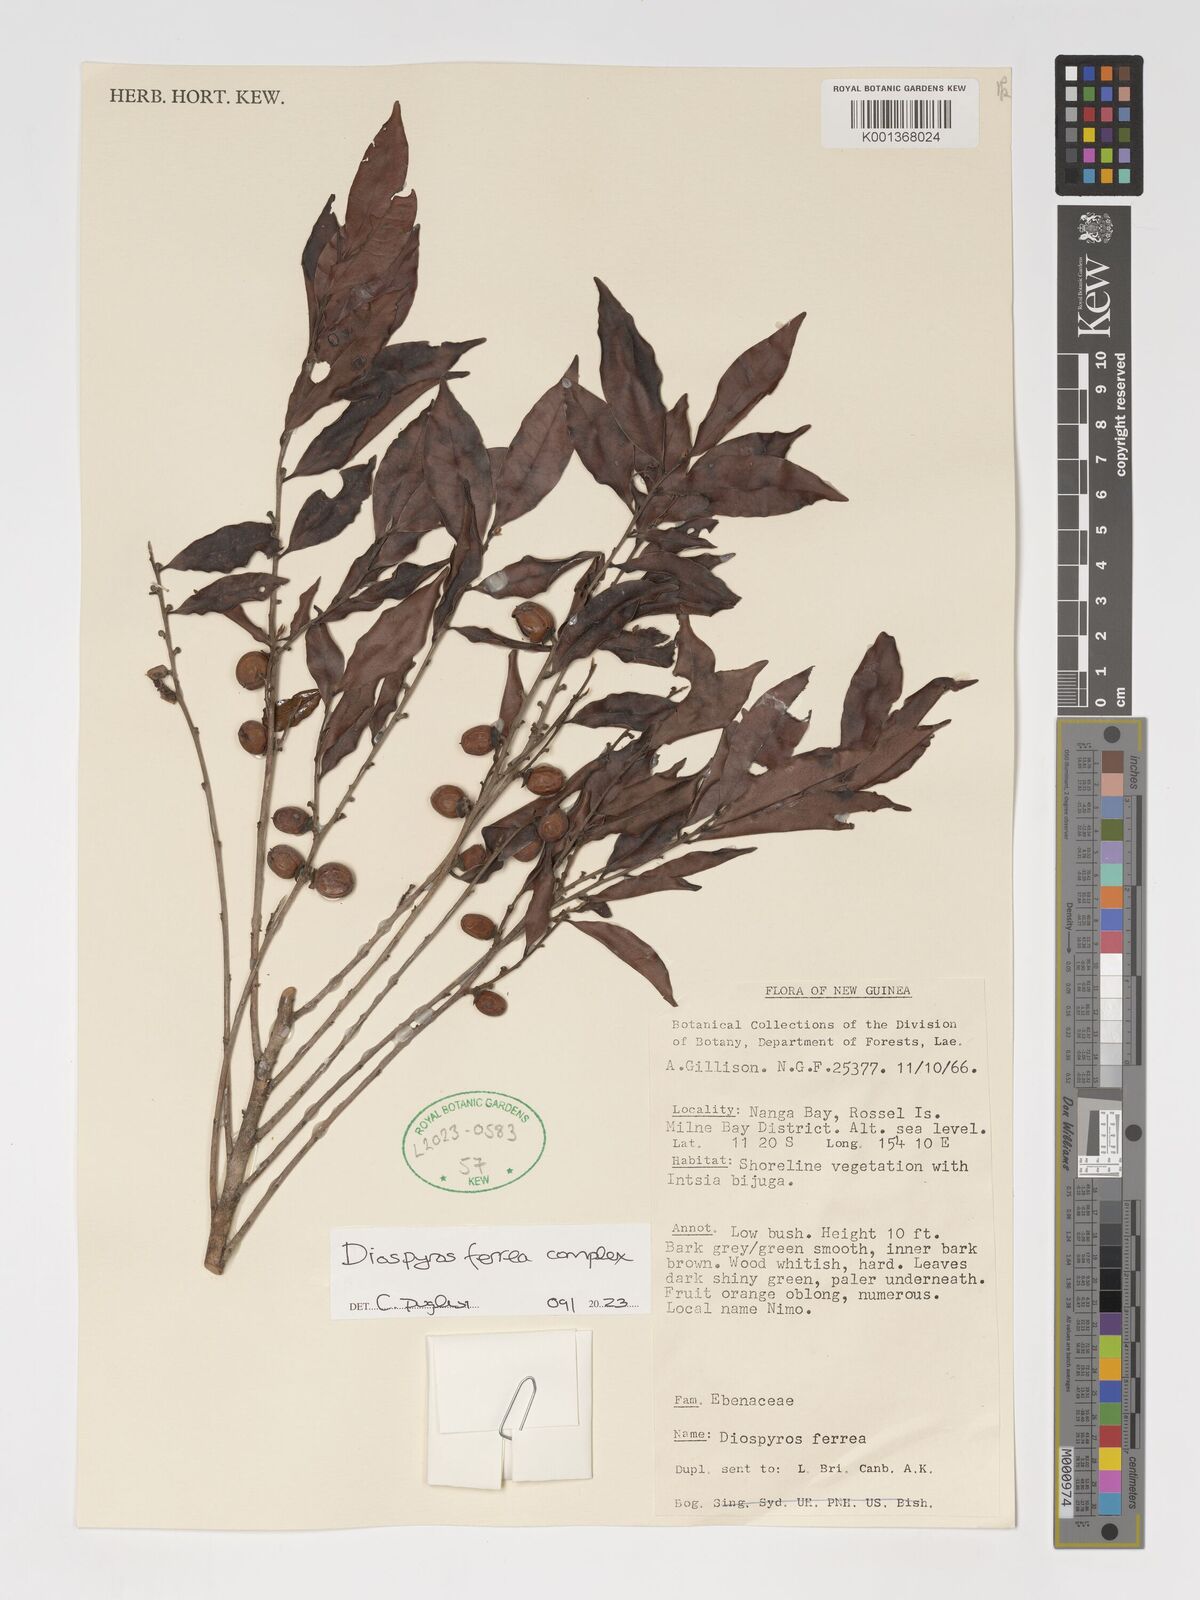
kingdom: Plantae
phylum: Tracheophyta
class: Magnoliopsida
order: Ericales
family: Ebenaceae
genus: Diospyros
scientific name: Diospyros ferrea
